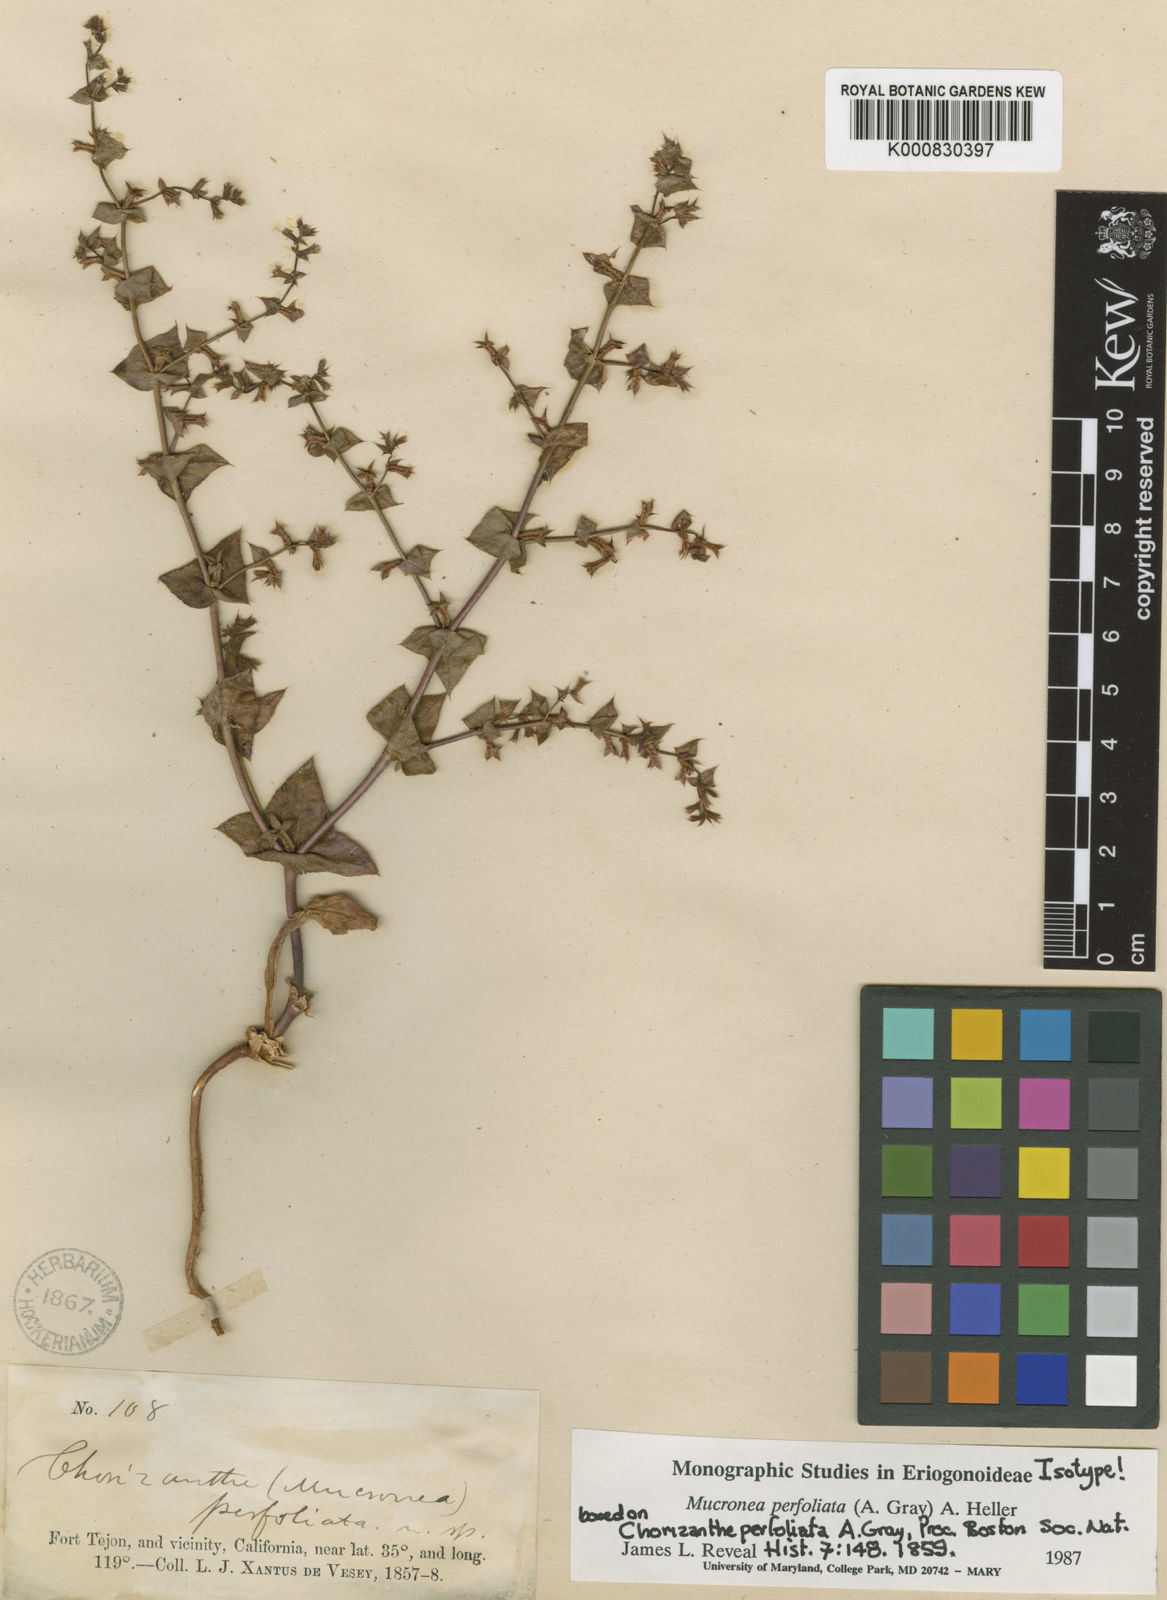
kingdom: Plantae
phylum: Tracheophyta
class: Magnoliopsida
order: Caryophyllales
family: Polygonaceae
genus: Mucronea
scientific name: Mucronea perfoliata
